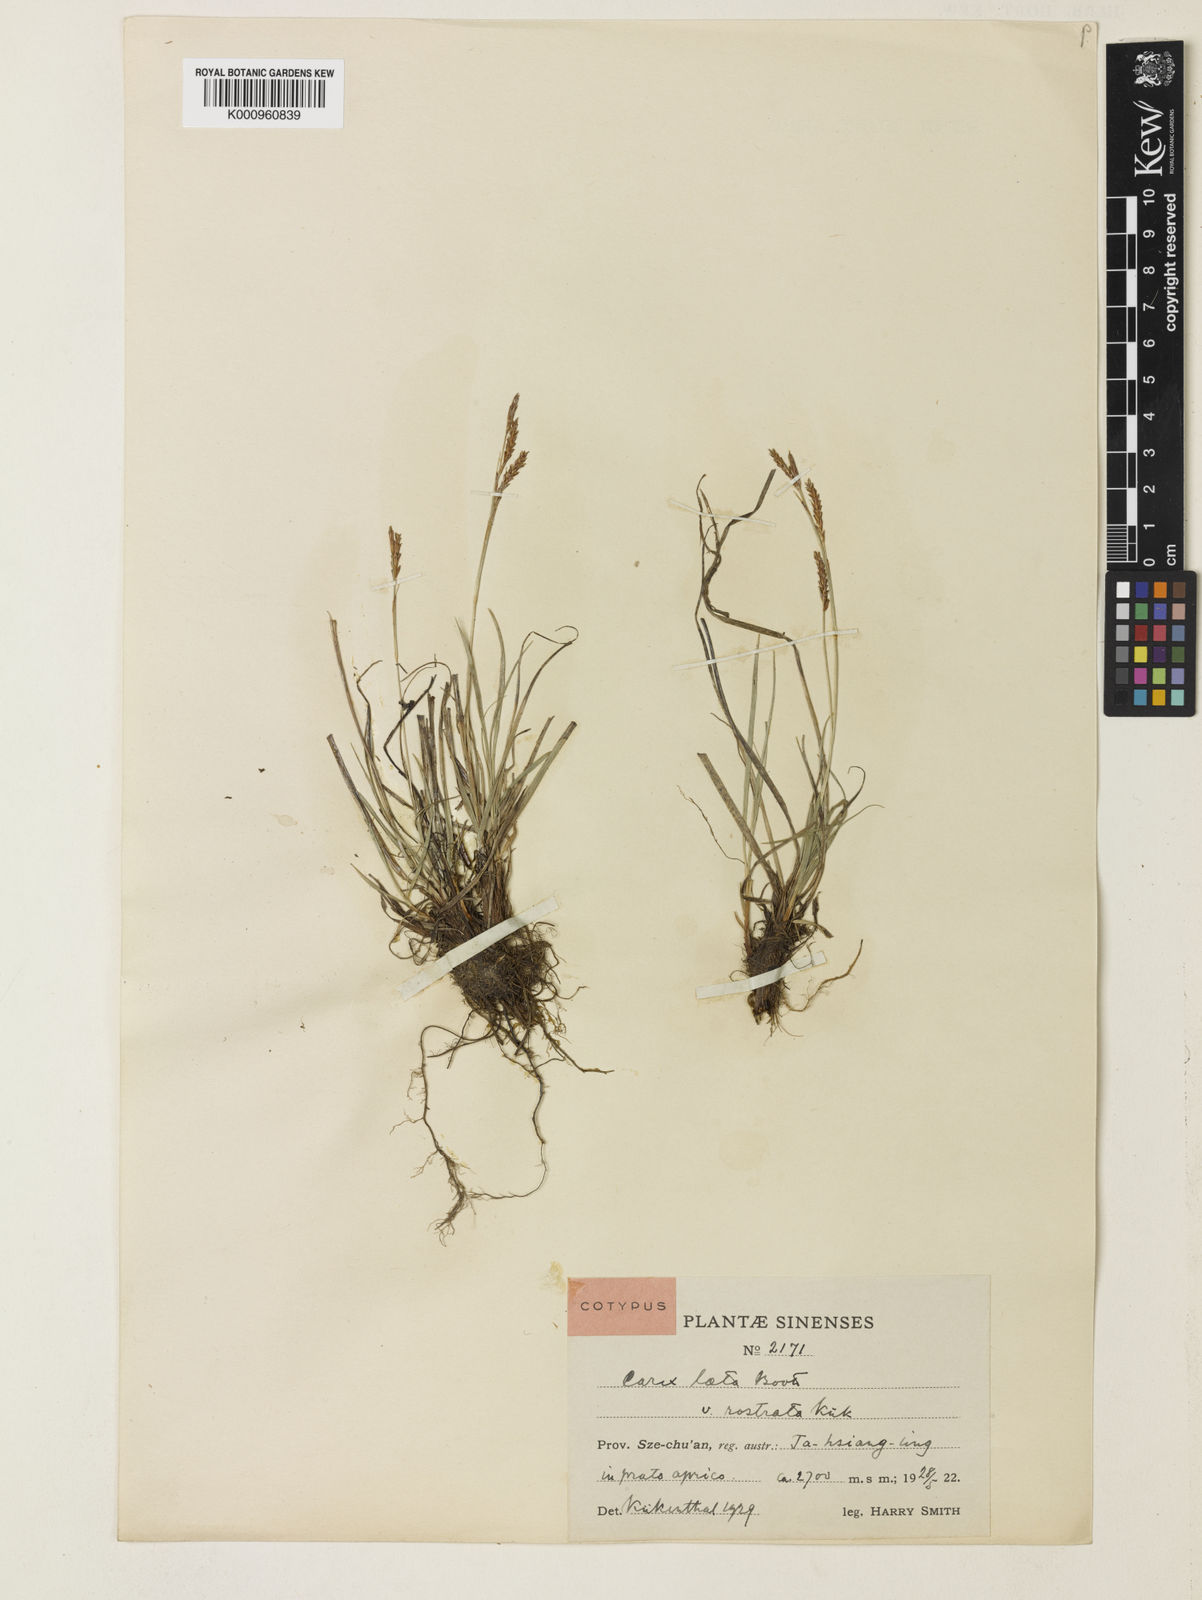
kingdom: Plantae
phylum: Tracheophyta
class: Liliopsida
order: Poales
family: Cyperaceae
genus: Carex
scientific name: Carex laeta
